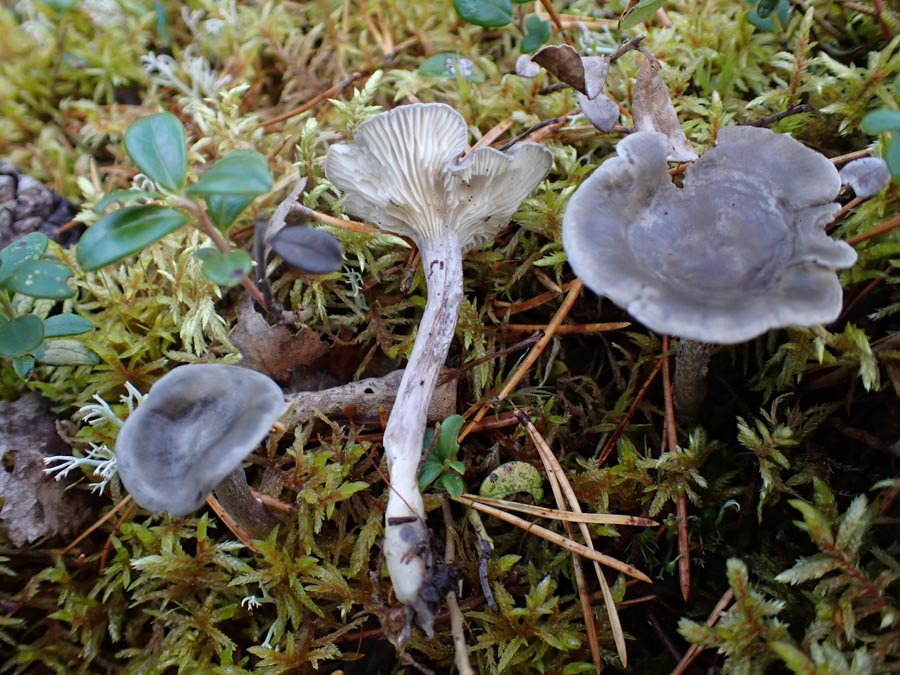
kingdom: Fungi
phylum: Basidiomycota
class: Agaricomycetes
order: Agaricales
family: Hygrophoraceae
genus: Cantharellula
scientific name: Cantharellula umbonata
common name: rødmende gaffelblad
